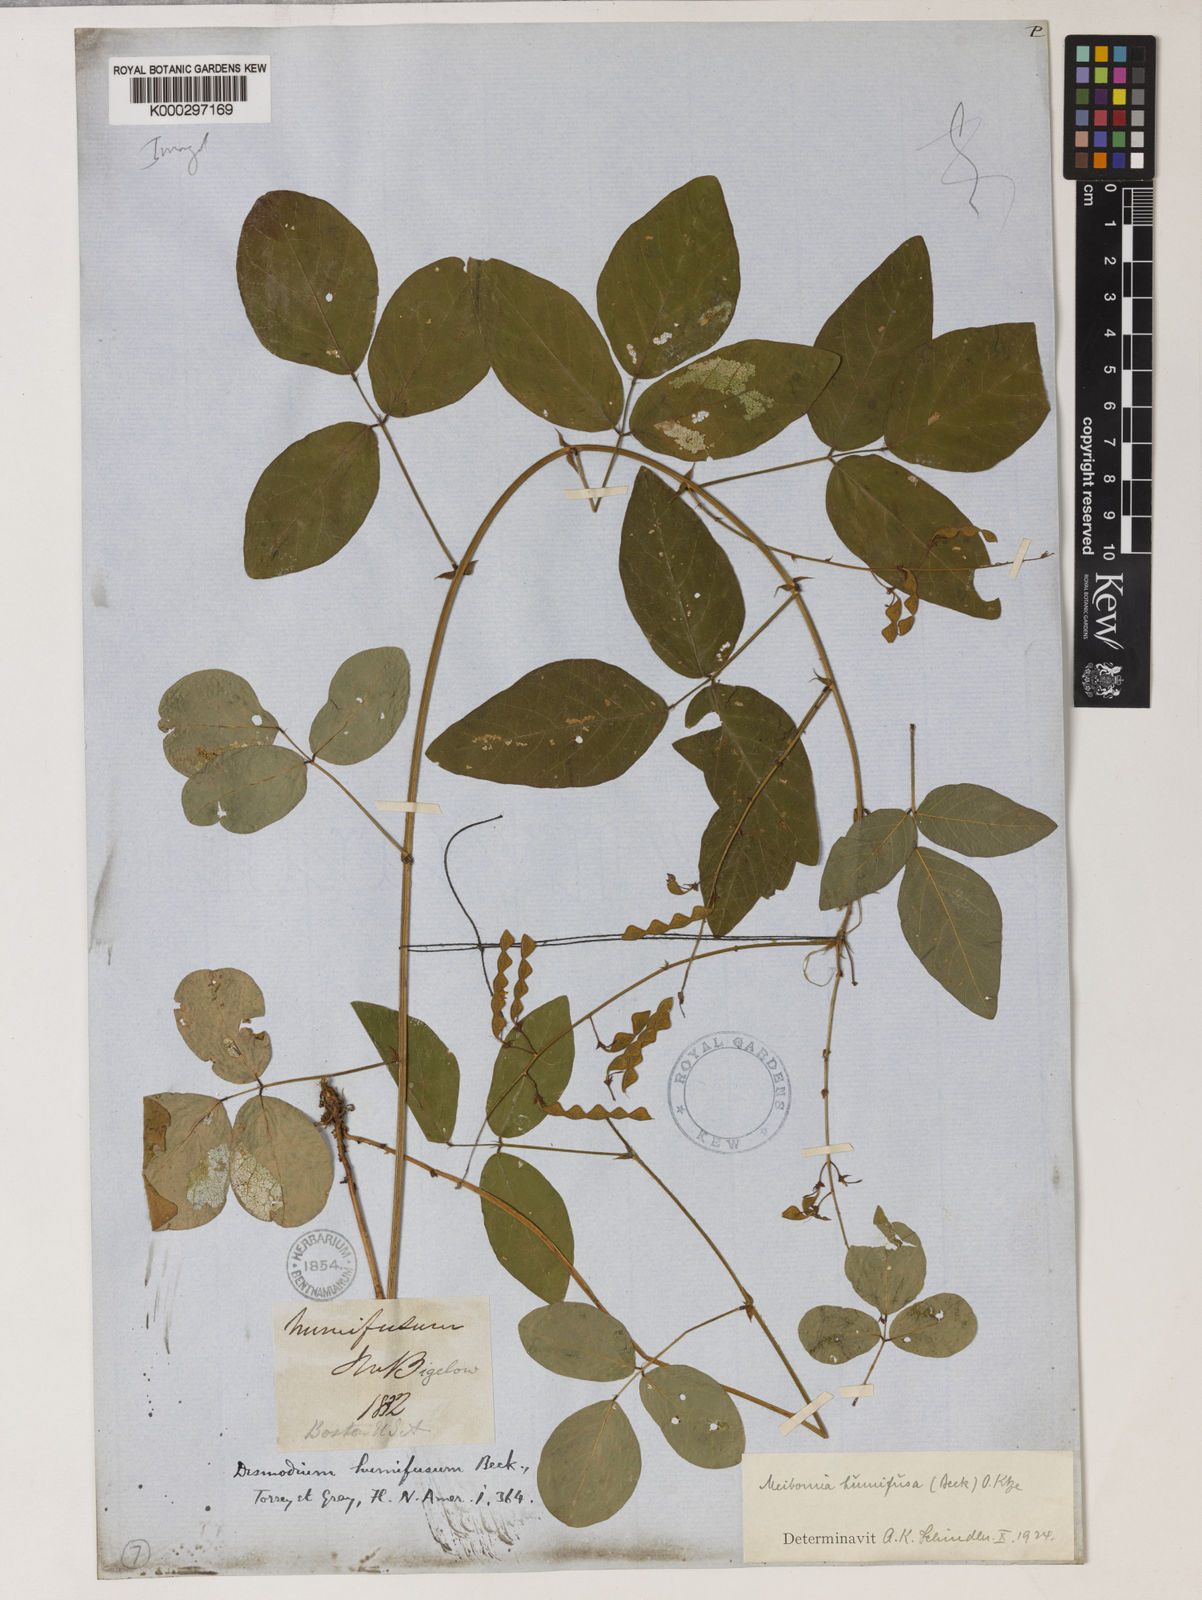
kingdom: Plantae
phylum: Tracheophyta
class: Magnoliopsida
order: Fabales
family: Fabaceae
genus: Desmodium
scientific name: Desmodium humifusum
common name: Trailing tick trefoil
